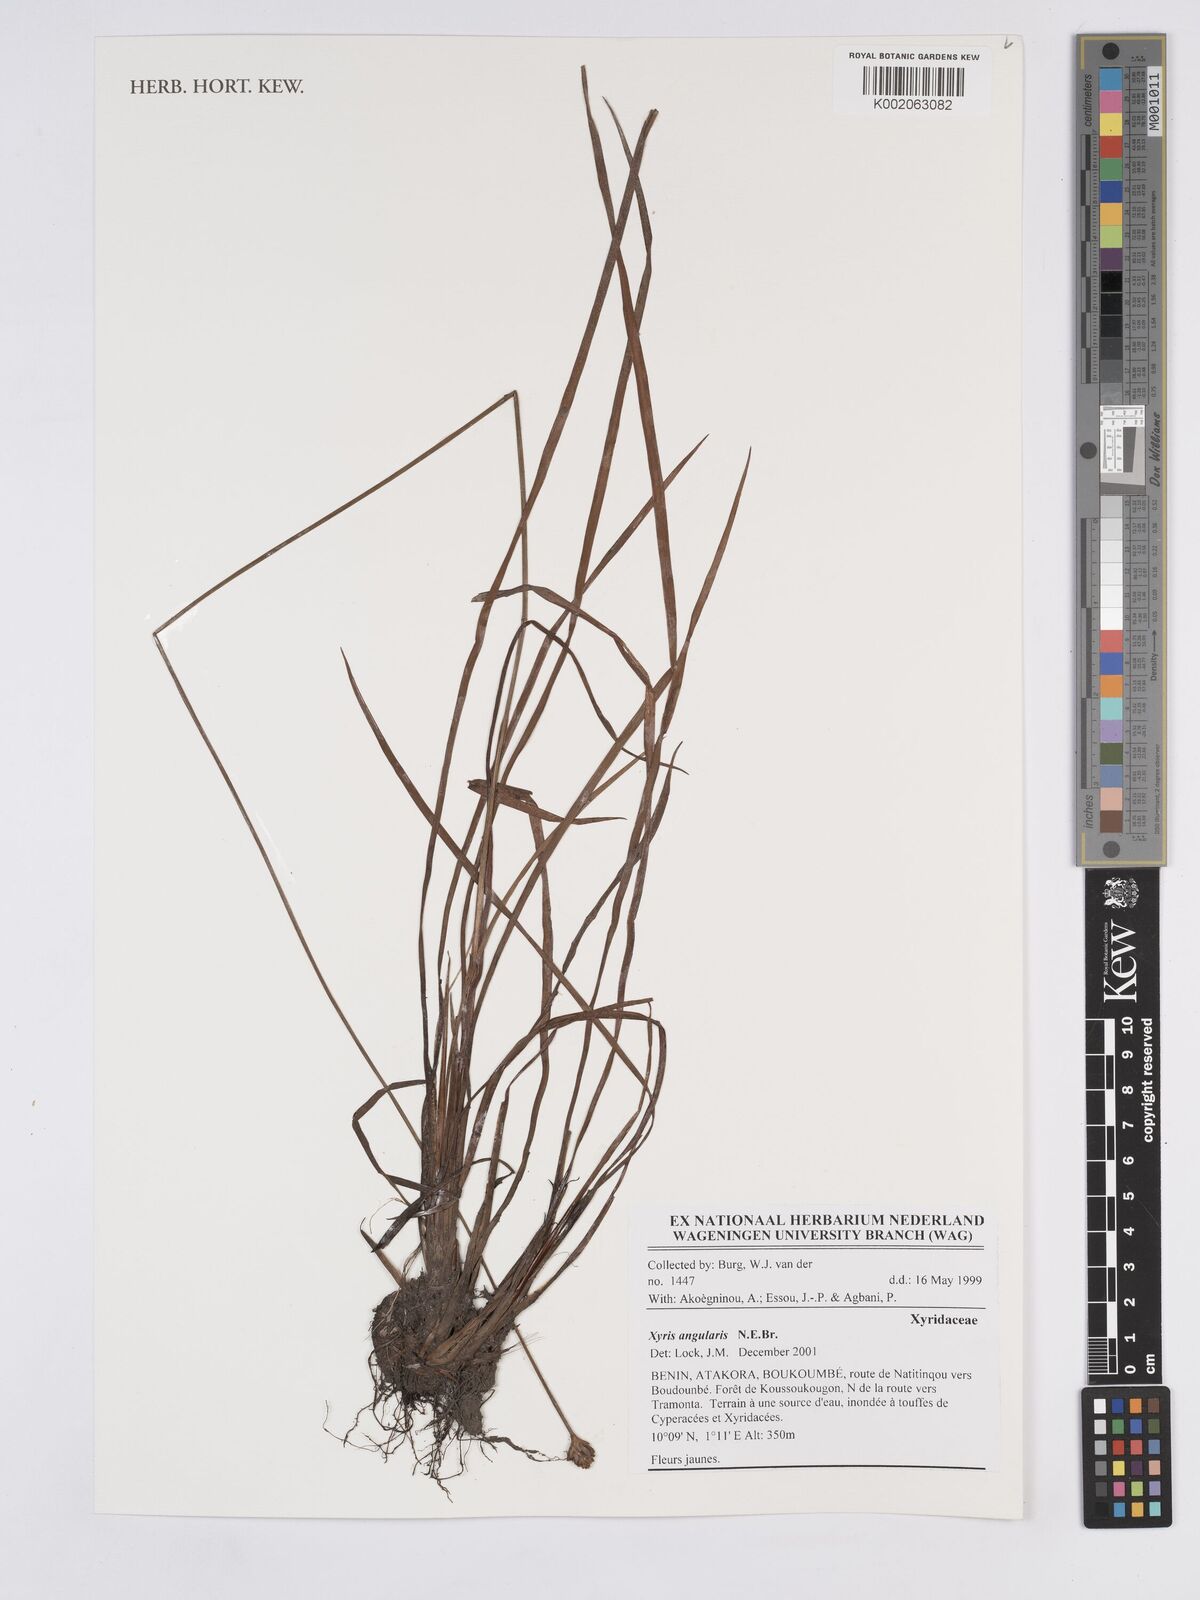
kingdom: Plantae
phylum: Tracheophyta
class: Liliopsida
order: Poales
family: Xyridaceae
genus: Xyris
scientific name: Xyris angularis
